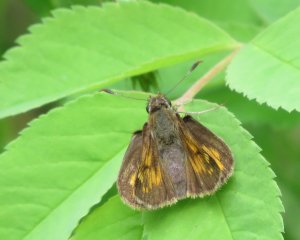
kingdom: Animalia
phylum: Arthropoda
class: Insecta
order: Lepidoptera
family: Hesperiidae
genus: Lon
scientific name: Lon hobomok
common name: Hobomok Skipper
